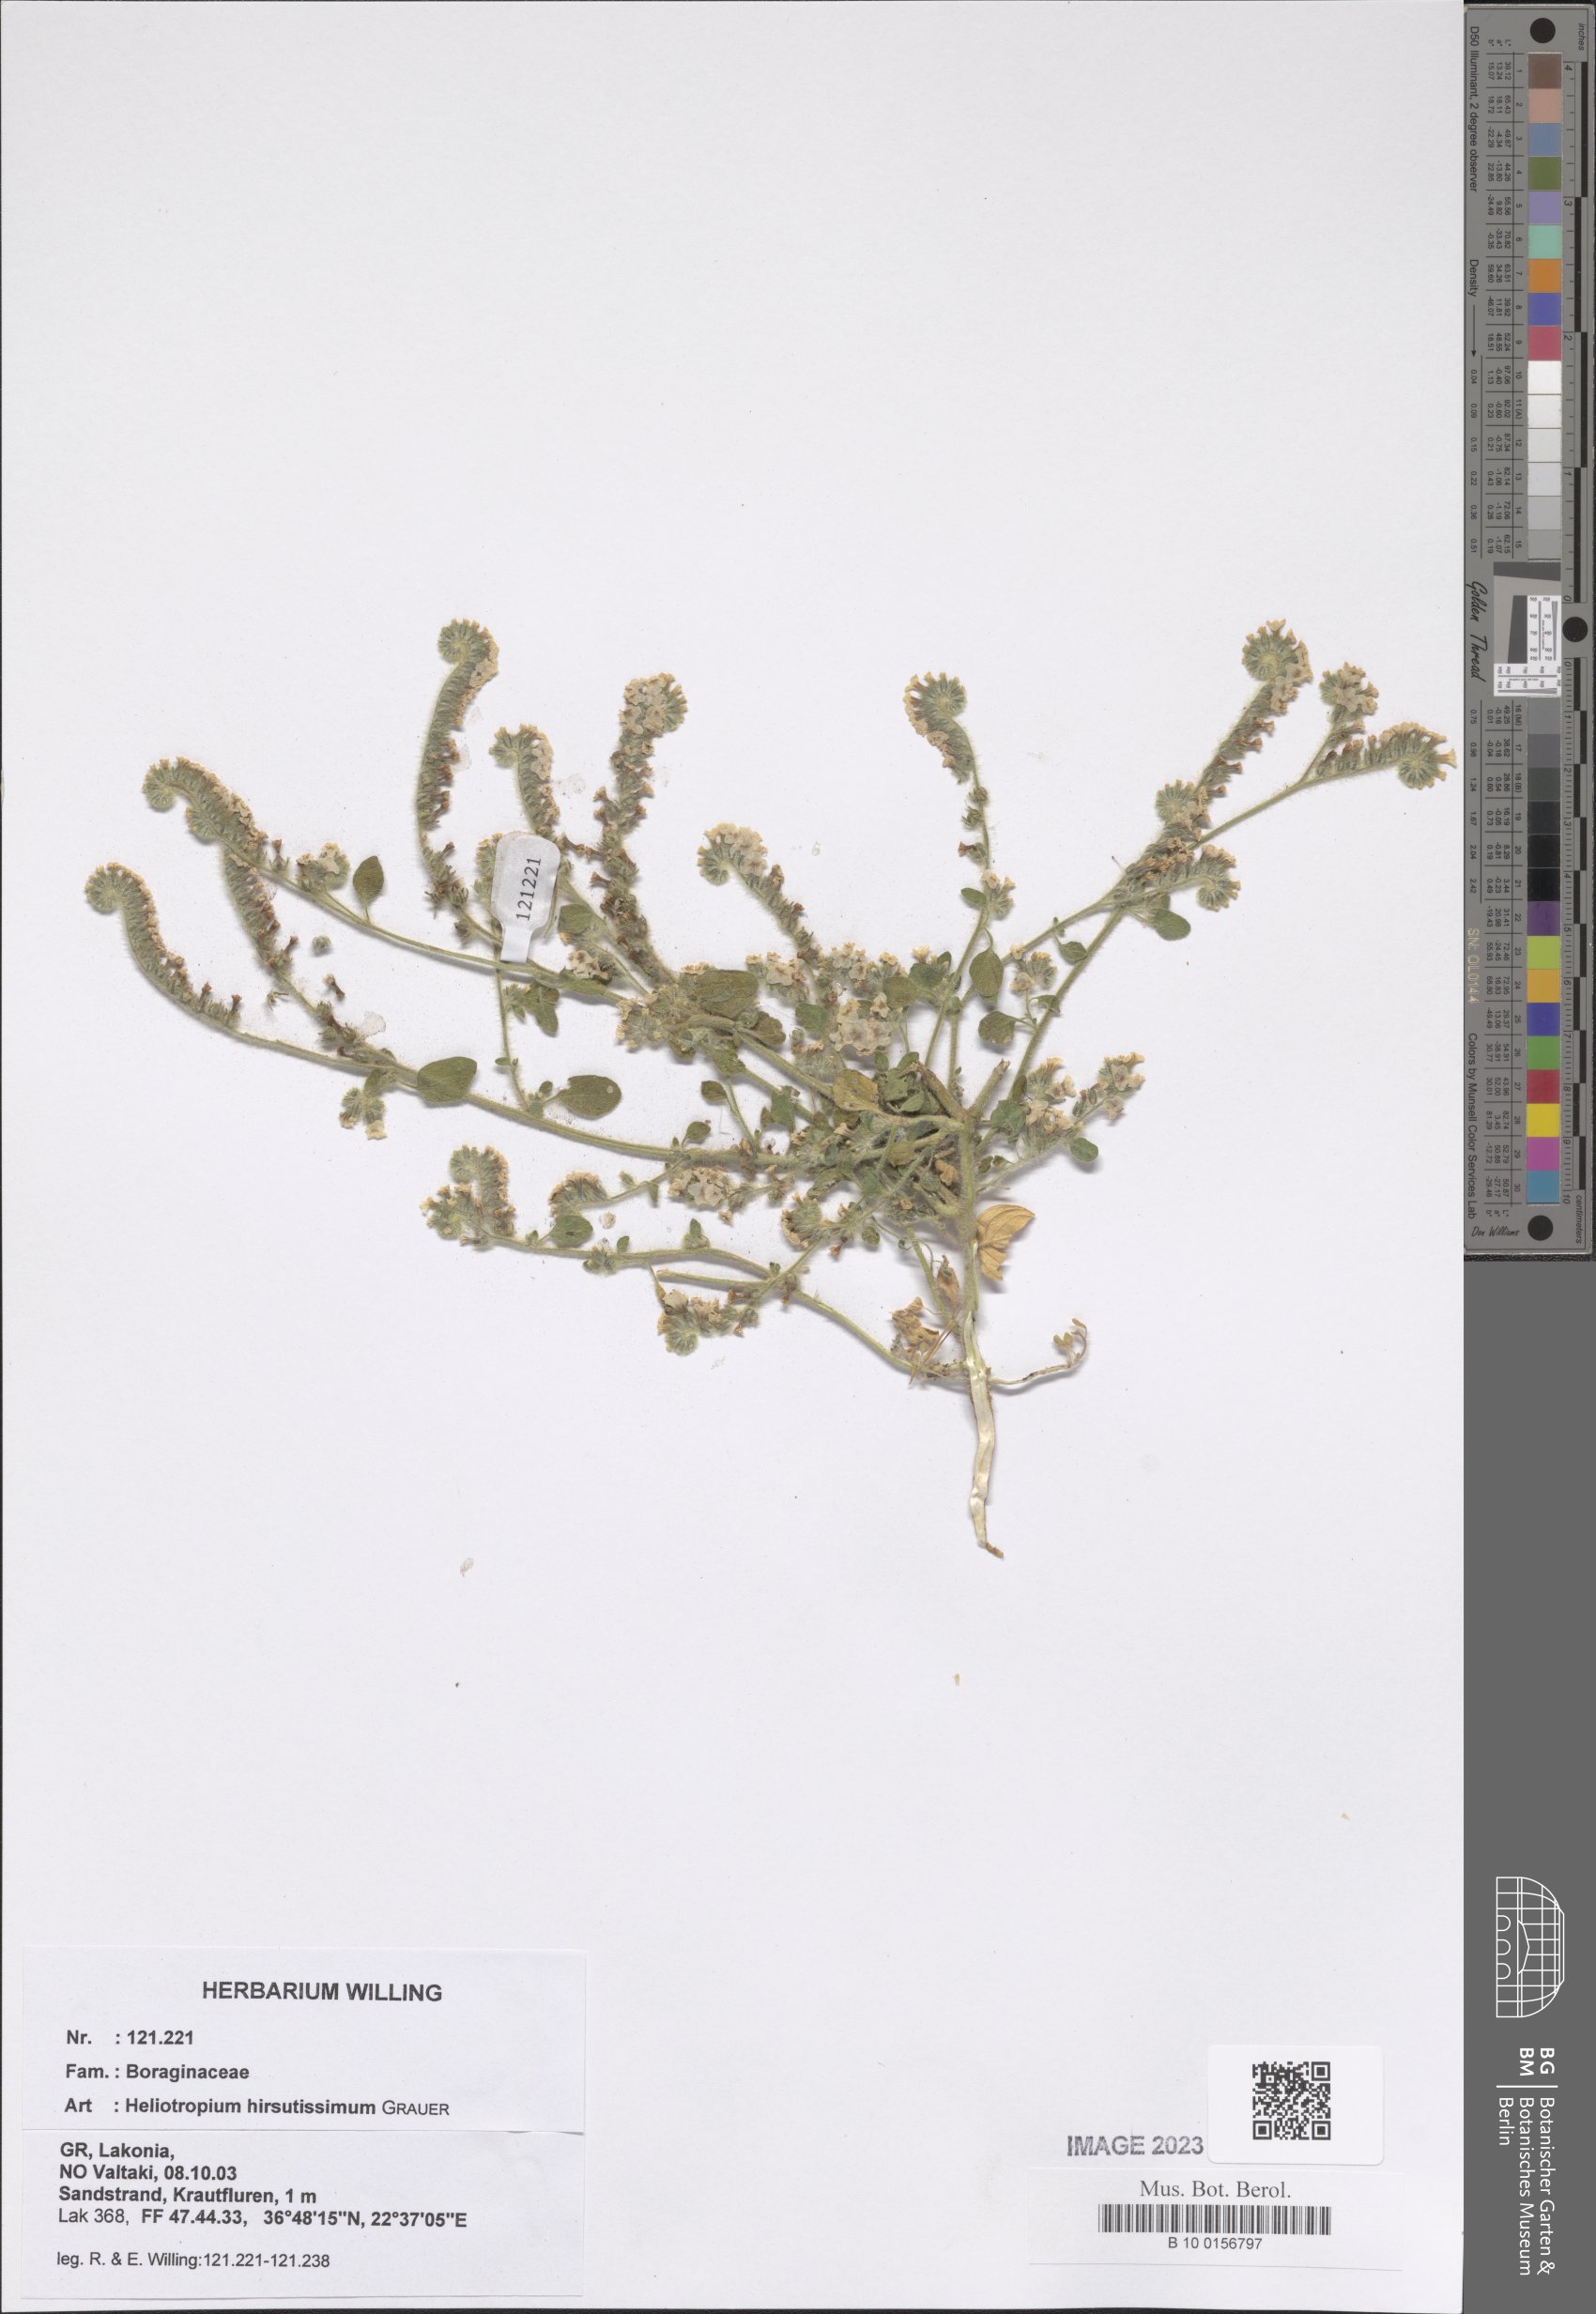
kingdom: Plantae
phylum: Tracheophyta
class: Magnoliopsida
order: Boraginales
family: Heliotropiaceae
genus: Heliotropium
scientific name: Heliotropium hirsutissimum
